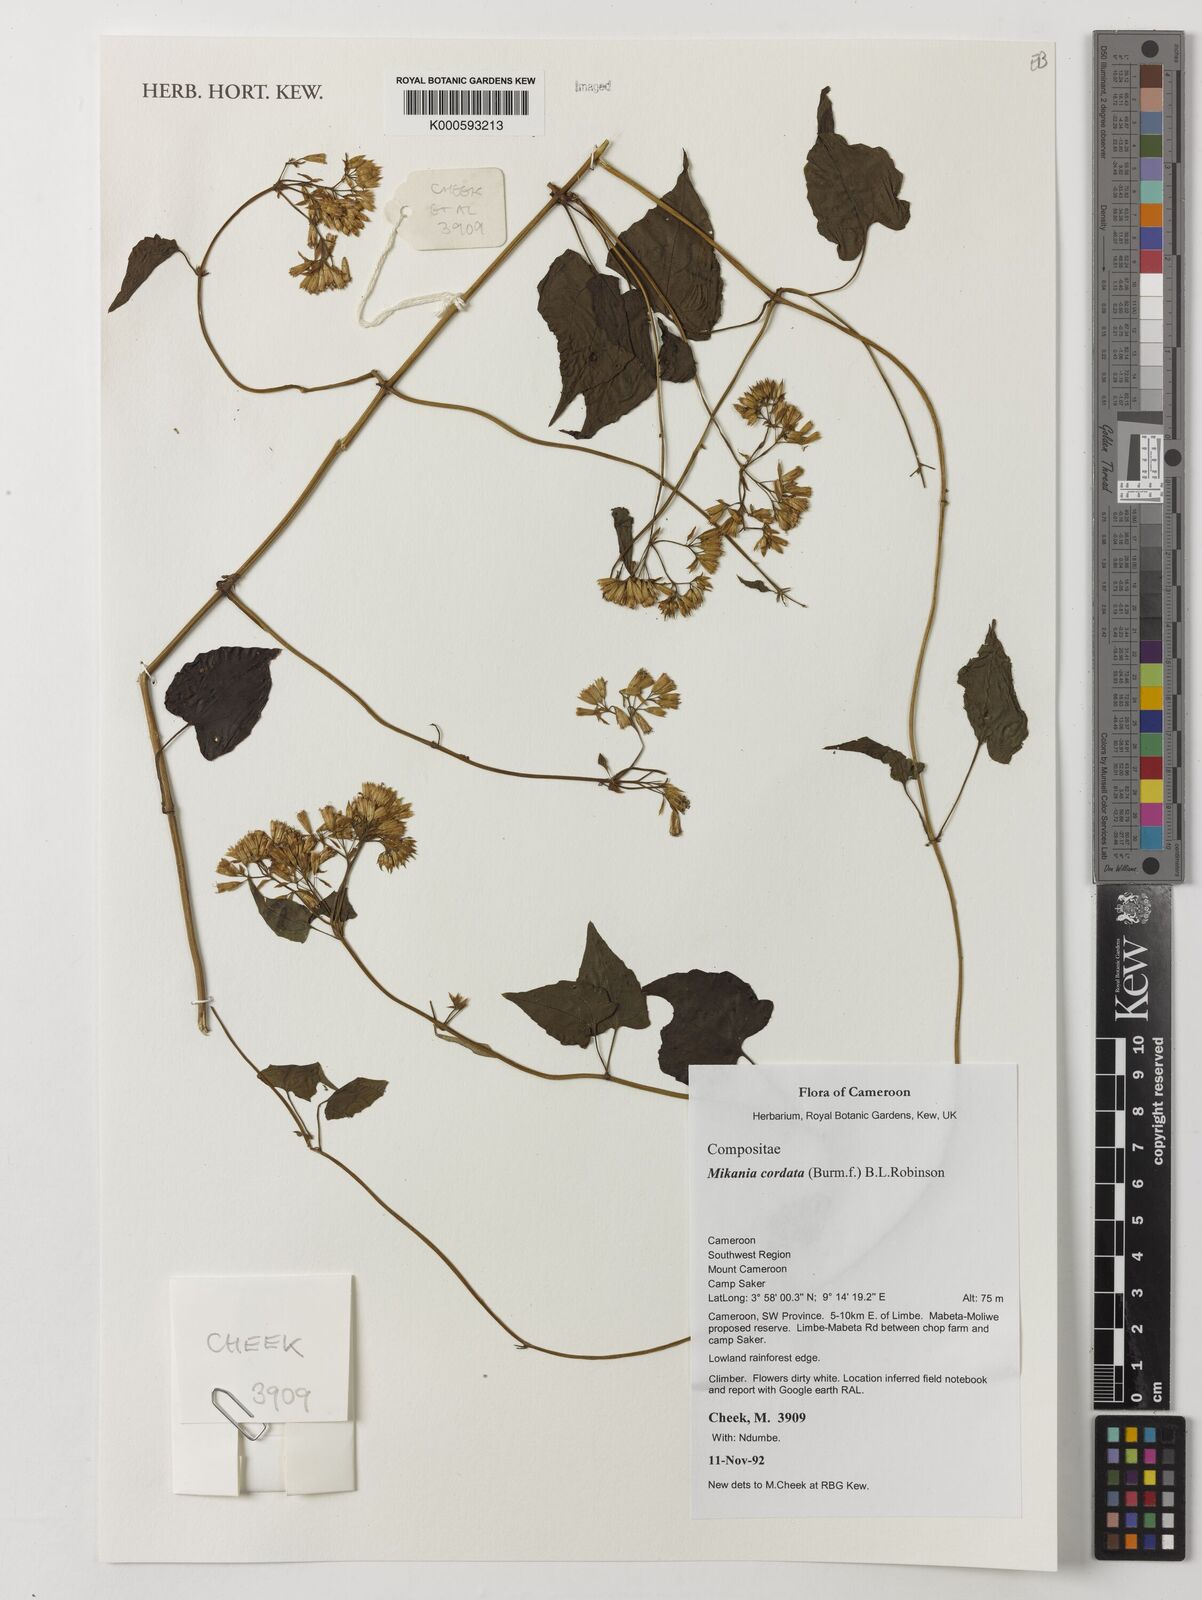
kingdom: Plantae
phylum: Tracheophyta
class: Magnoliopsida
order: Asterales
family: Asteraceae
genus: Mikania
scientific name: Mikania cordata
